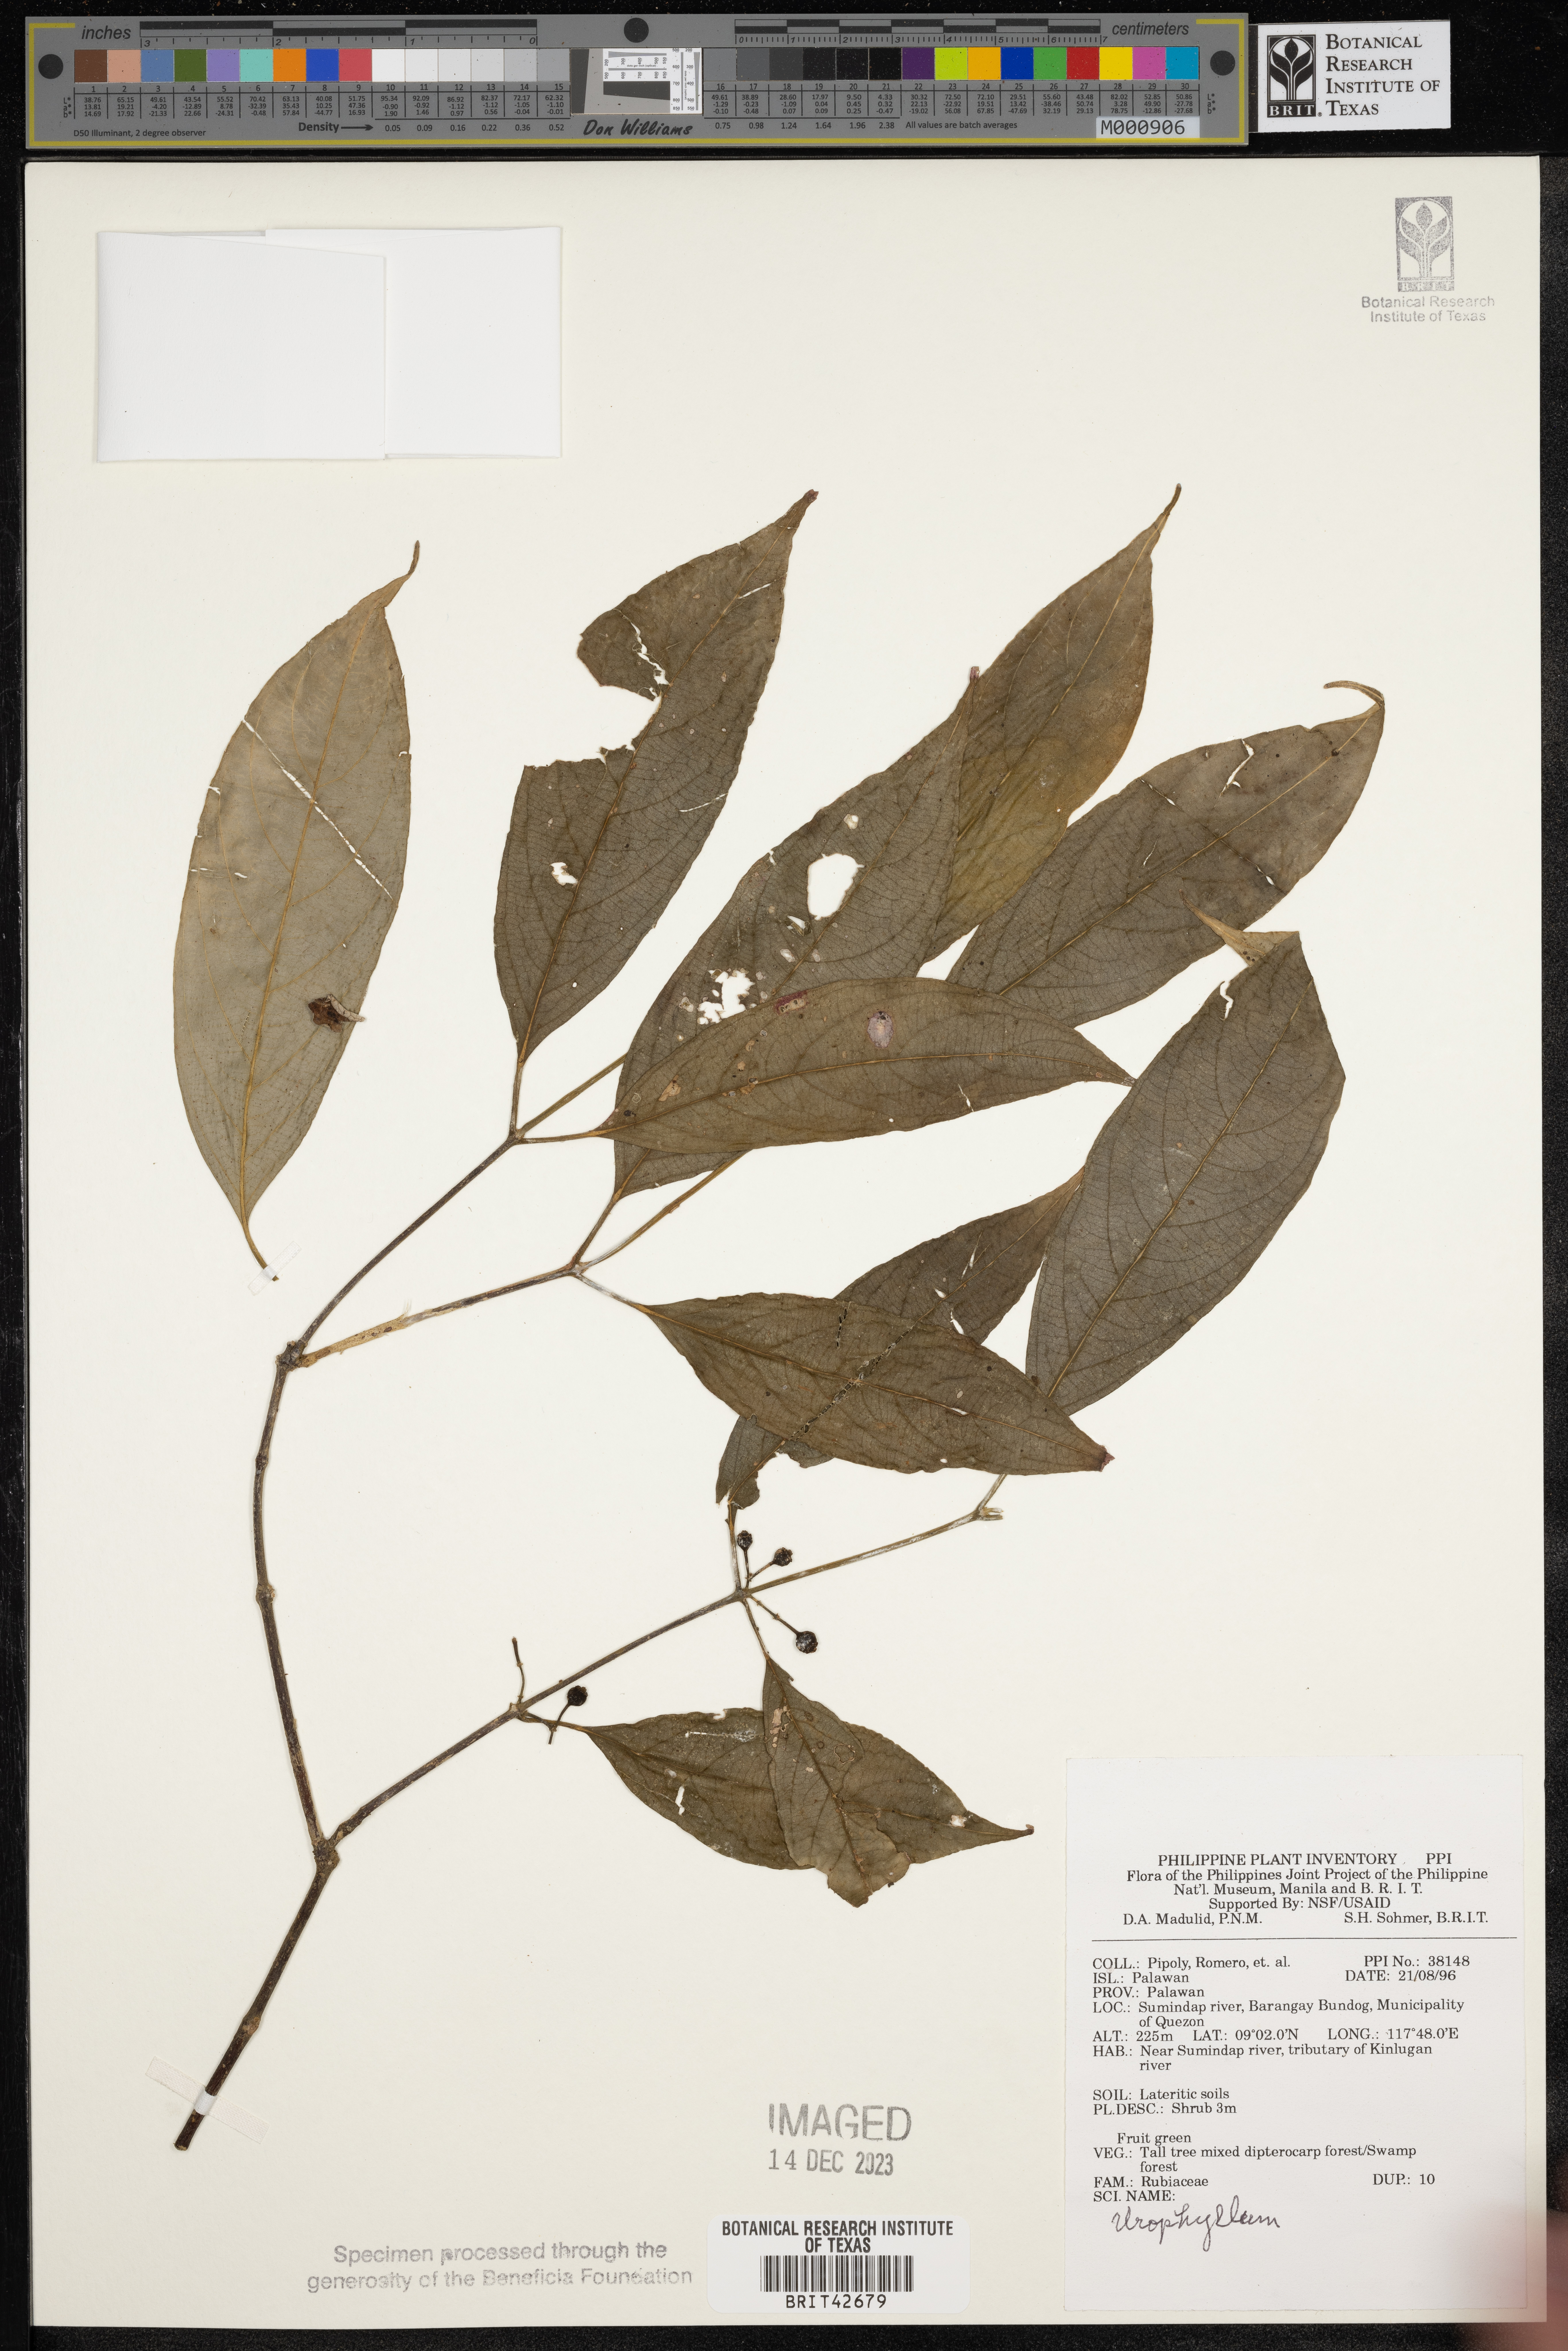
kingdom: Plantae
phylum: Tracheophyta
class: Magnoliopsida
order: Gentianales
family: Rubiaceae
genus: Urophyllum
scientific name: Urophyllum
